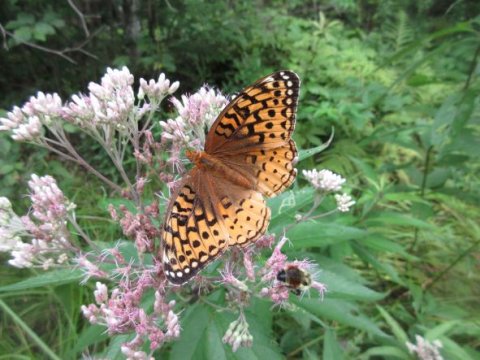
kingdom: Animalia
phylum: Arthropoda
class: Insecta
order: Lepidoptera
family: Nymphalidae
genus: Speyeria
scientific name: Speyeria cybele
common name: Great Spangled Fritillary
